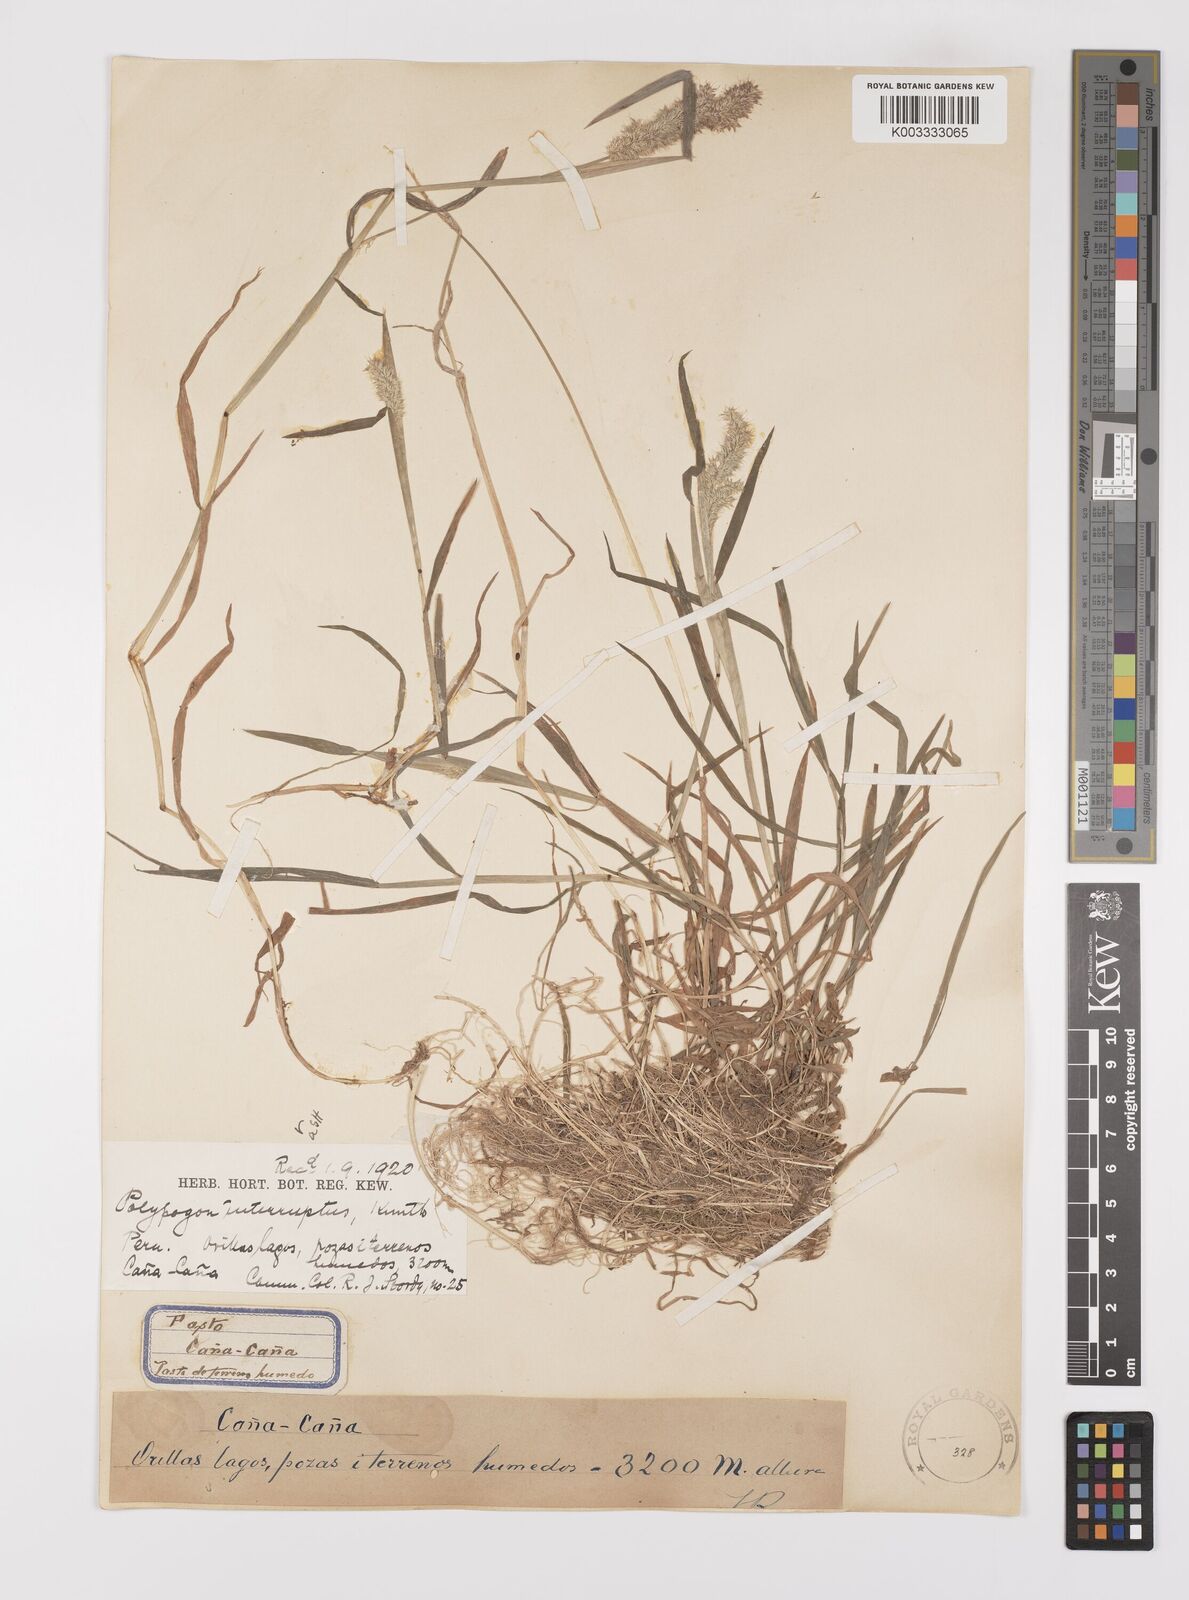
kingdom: Plantae
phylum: Tracheophyta
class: Liliopsida
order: Poales
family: Poaceae
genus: Polypogon
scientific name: Polypogon interruptus
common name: Ditch polypogon
